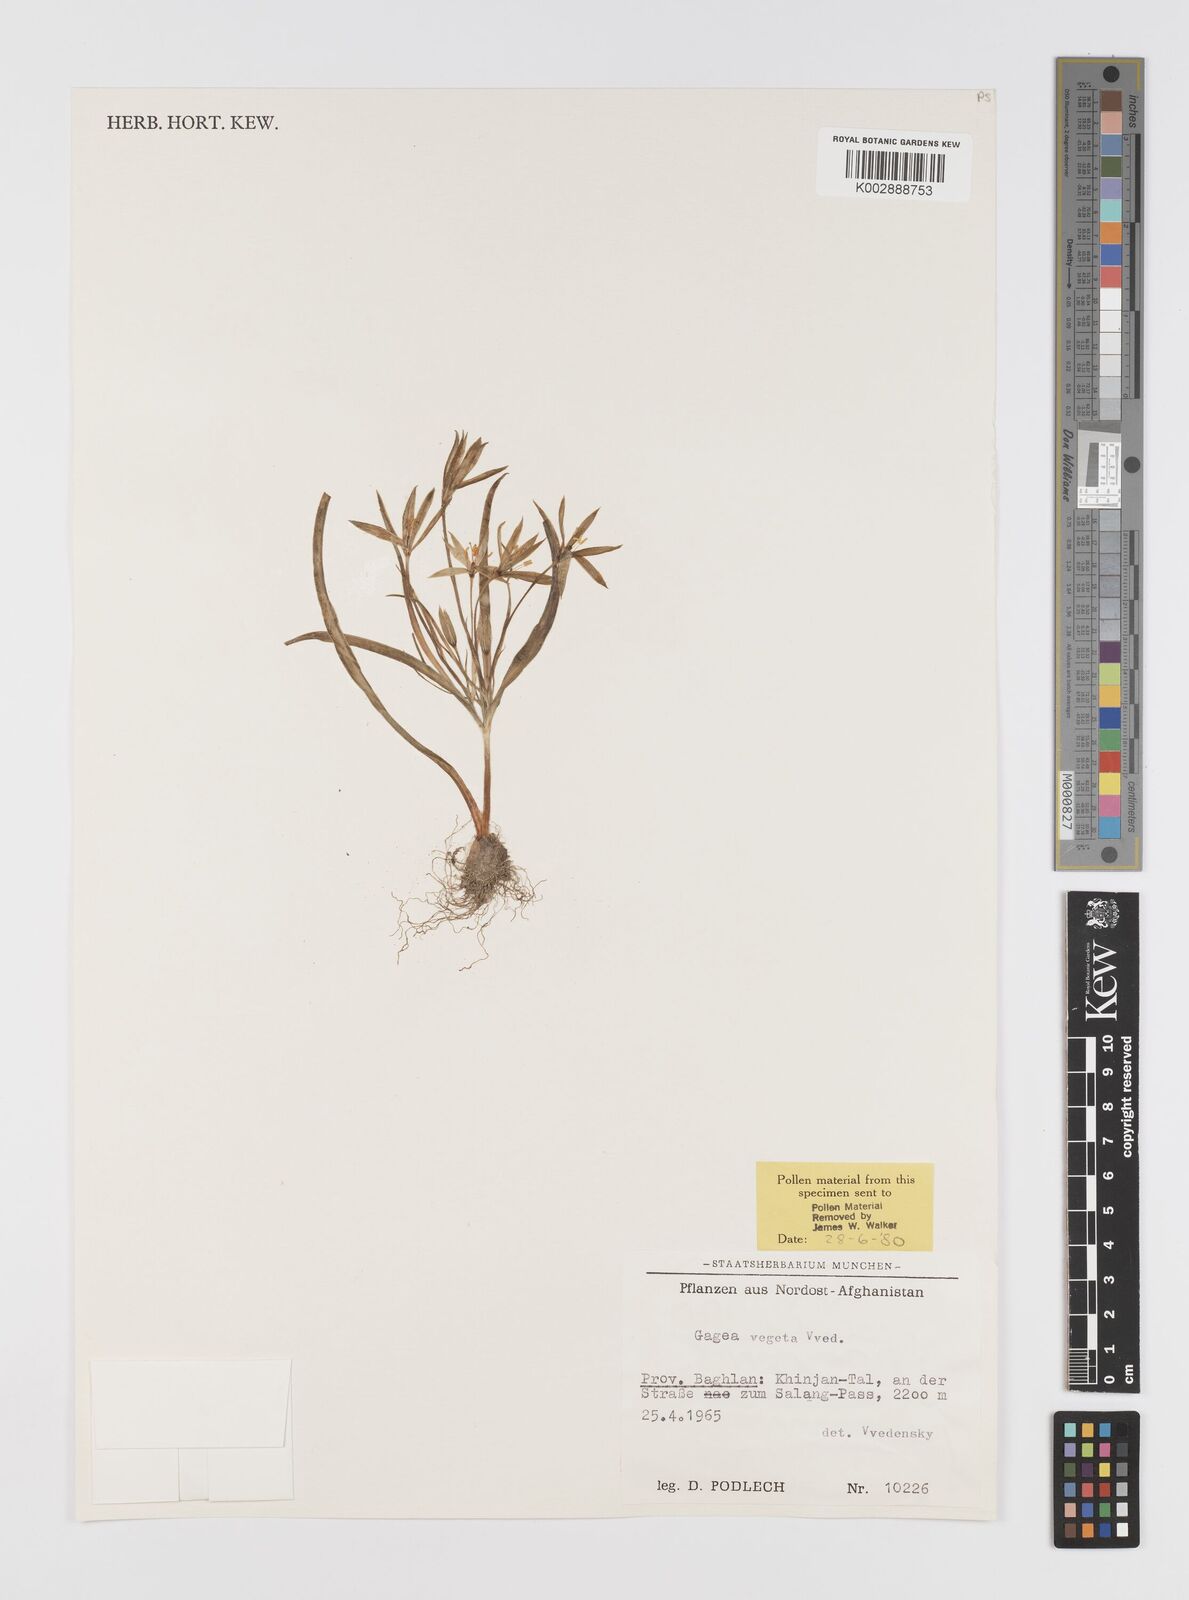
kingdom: Plantae
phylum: Tracheophyta
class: Liliopsida
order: Liliales
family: Liliaceae
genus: Gagea
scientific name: Gagea vegeta
